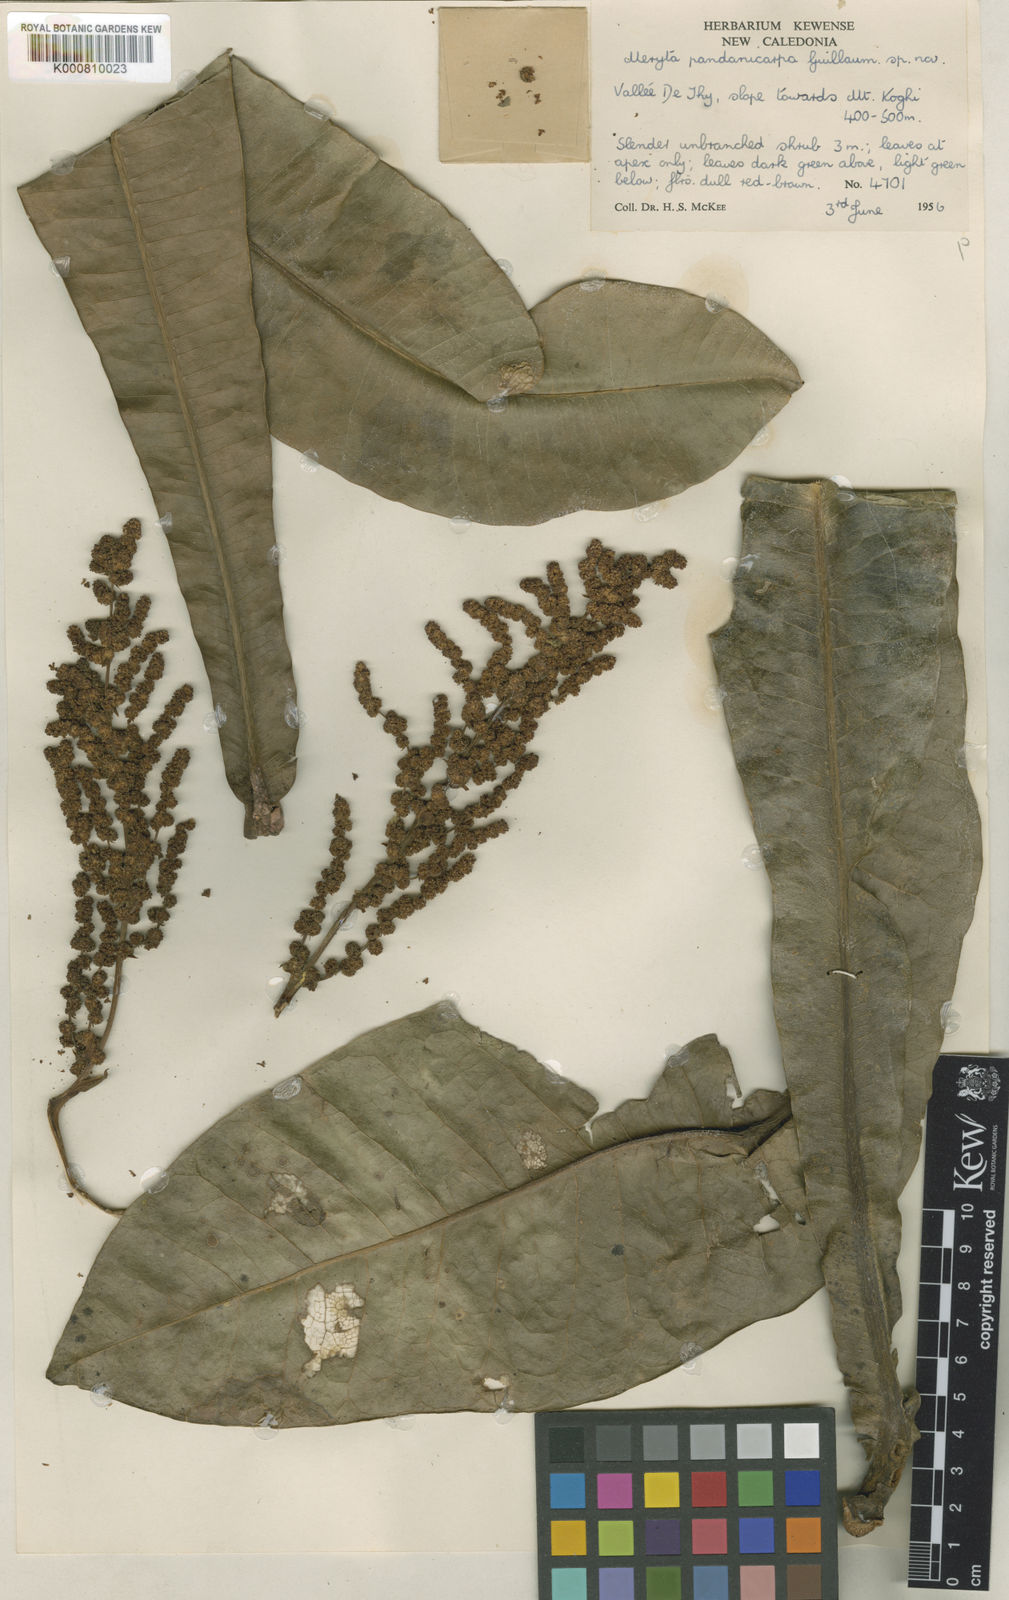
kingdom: Plantae
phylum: Tracheophyta
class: Magnoliopsida
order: Apiales
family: Araliaceae
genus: Meryta
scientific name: Meryta pandanicarpa
